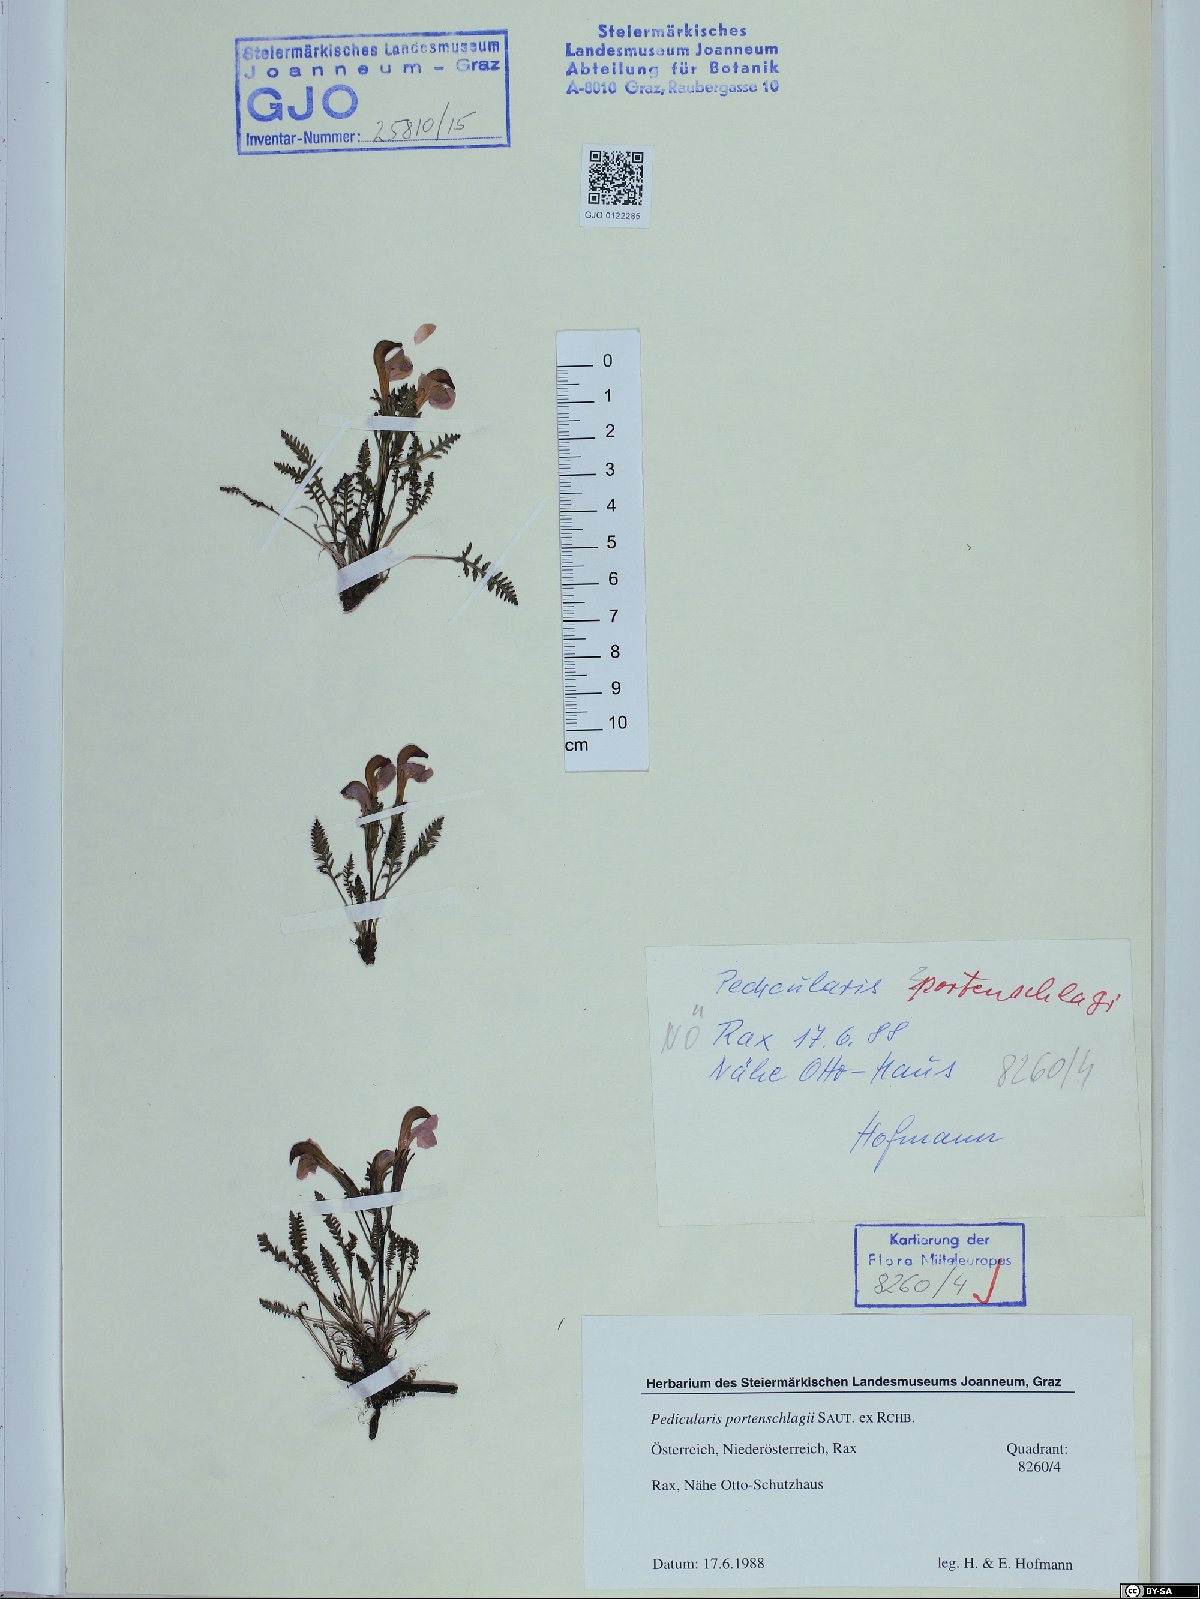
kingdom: Plantae
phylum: Tracheophyta
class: Magnoliopsida
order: Lamiales
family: Orobanchaceae
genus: Pedicularis
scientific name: Pedicularis portenschlagii
